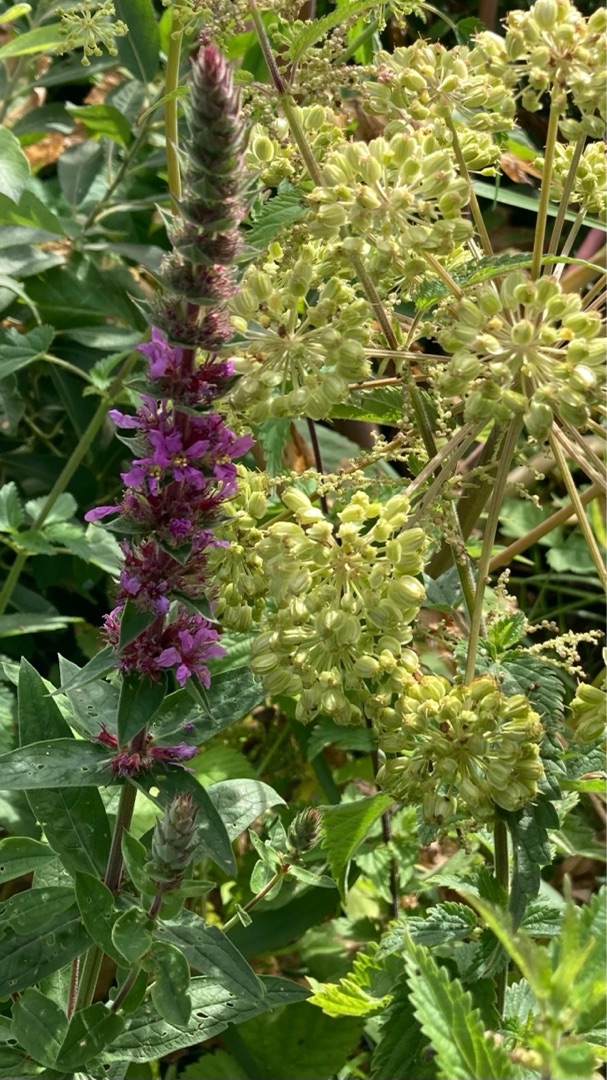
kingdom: Plantae
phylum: Tracheophyta
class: Magnoliopsida
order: Myrtales
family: Lythraceae
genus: Lythrum
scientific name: Lythrum salicaria
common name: Kattehale
